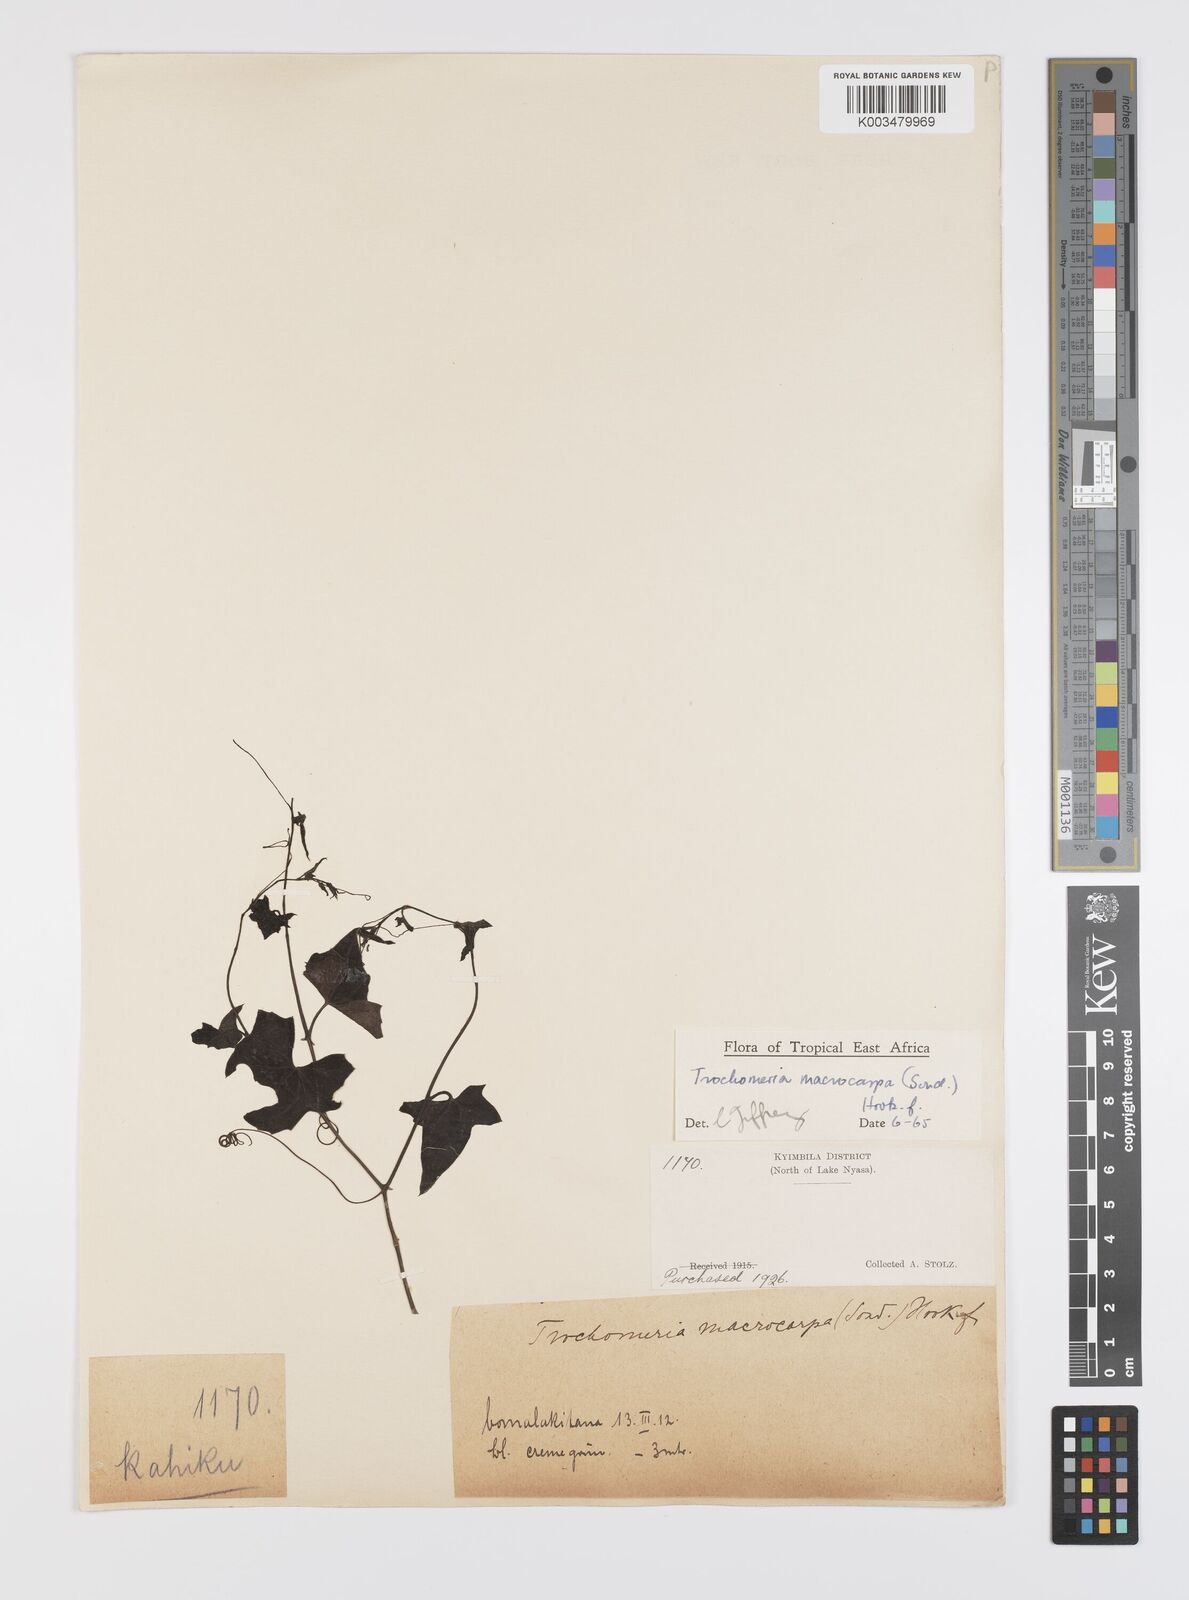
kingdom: Plantae
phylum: Tracheophyta
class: Magnoliopsida
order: Cucurbitales
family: Cucurbitaceae
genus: Trochomeria
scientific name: Trochomeria macrocarpa
